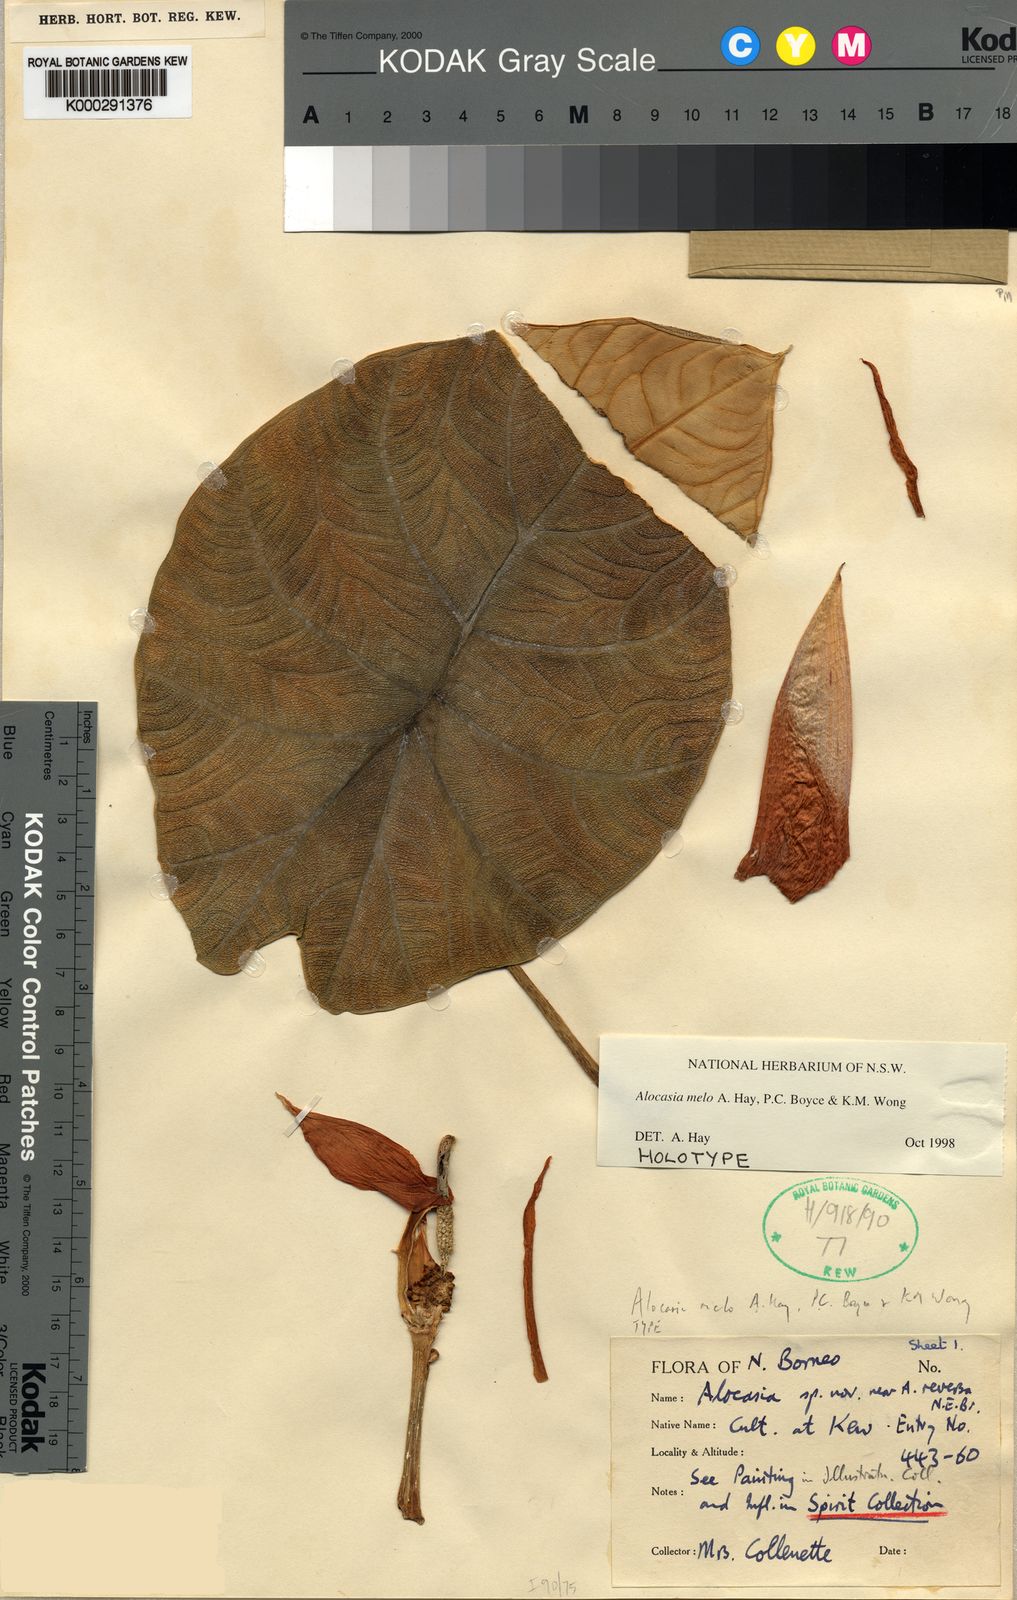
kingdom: Plantae
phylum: Tracheophyta
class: Liliopsida
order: Alismatales
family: Araceae
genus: Alocasia
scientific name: Alocasia melo
